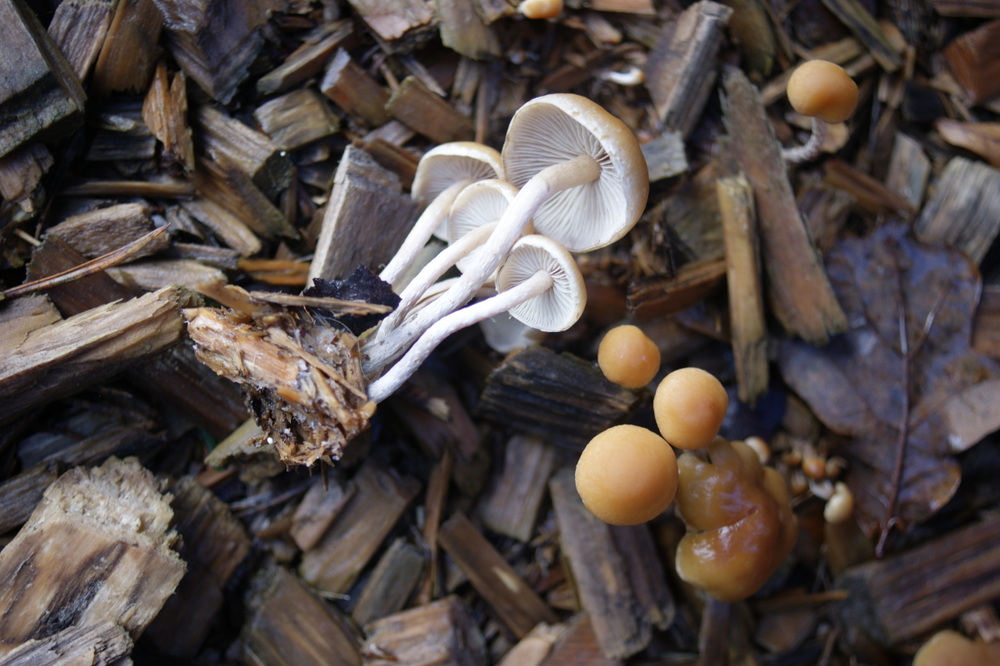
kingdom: Fungi
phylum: Basidiomycota
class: Agaricomycetes
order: Agaricales
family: Strophariaceae
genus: Hypholoma
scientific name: Hypholoma marginatum
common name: enlig svovlhat
